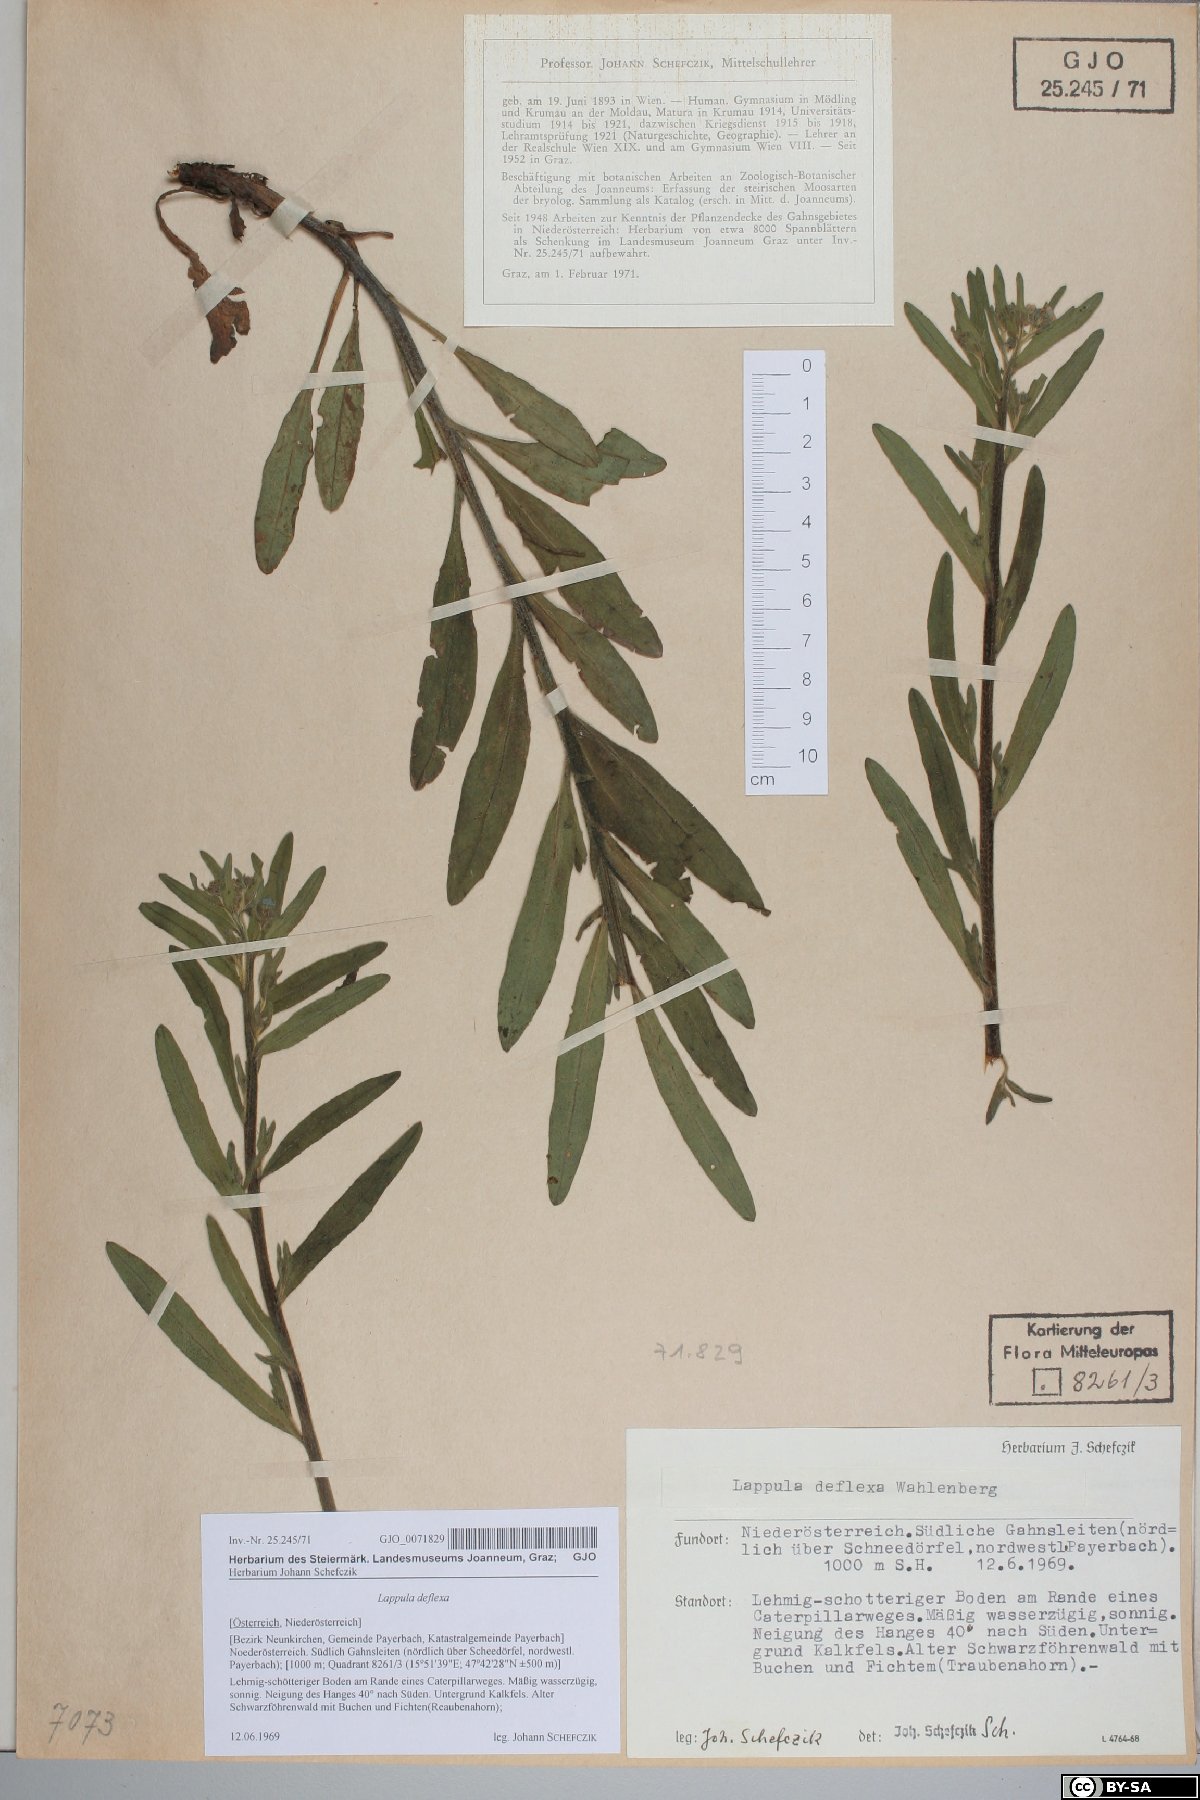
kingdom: Plantae
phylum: Tracheophyta
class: Magnoliopsida
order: Boraginales
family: Boraginaceae
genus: Hackelia
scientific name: Hackelia deflexa
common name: Nodding stickseed
